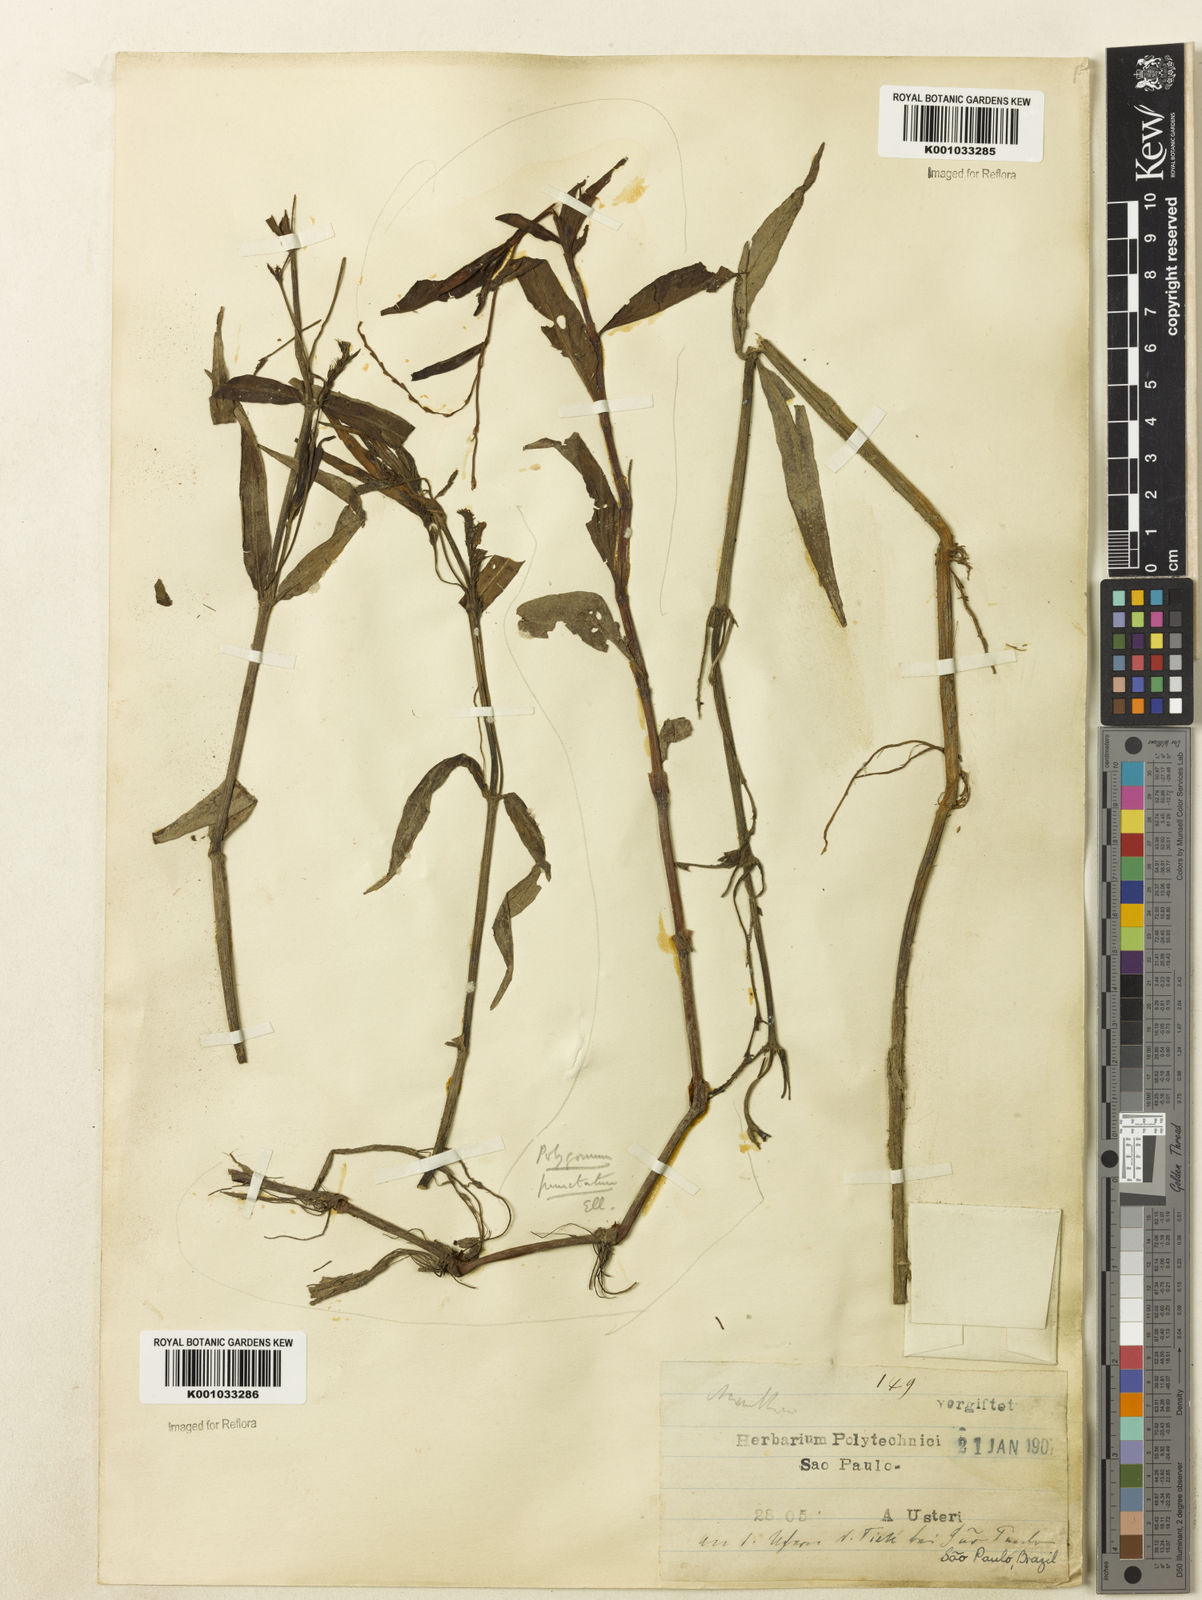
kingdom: Plantae
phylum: Tracheophyta
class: Magnoliopsida
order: Lamiales
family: Acanthaceae
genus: Dianthera
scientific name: Dianthera laevilinguis
